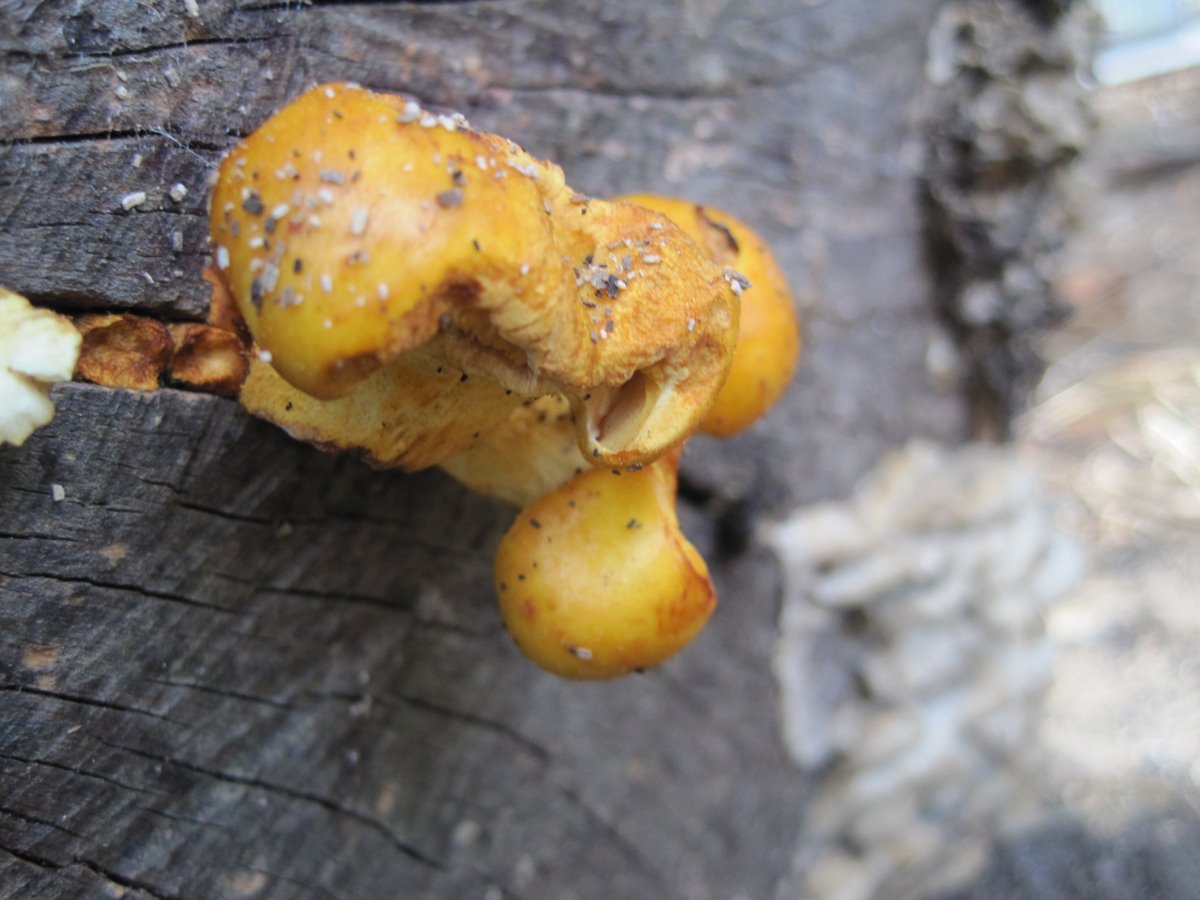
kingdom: Fungi
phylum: Basidiomycota
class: Agaricomycetes
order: Agaricales
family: Strophariaceae
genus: Pholiota
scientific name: Pholiota adiposa
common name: højtsiddende skælhat
